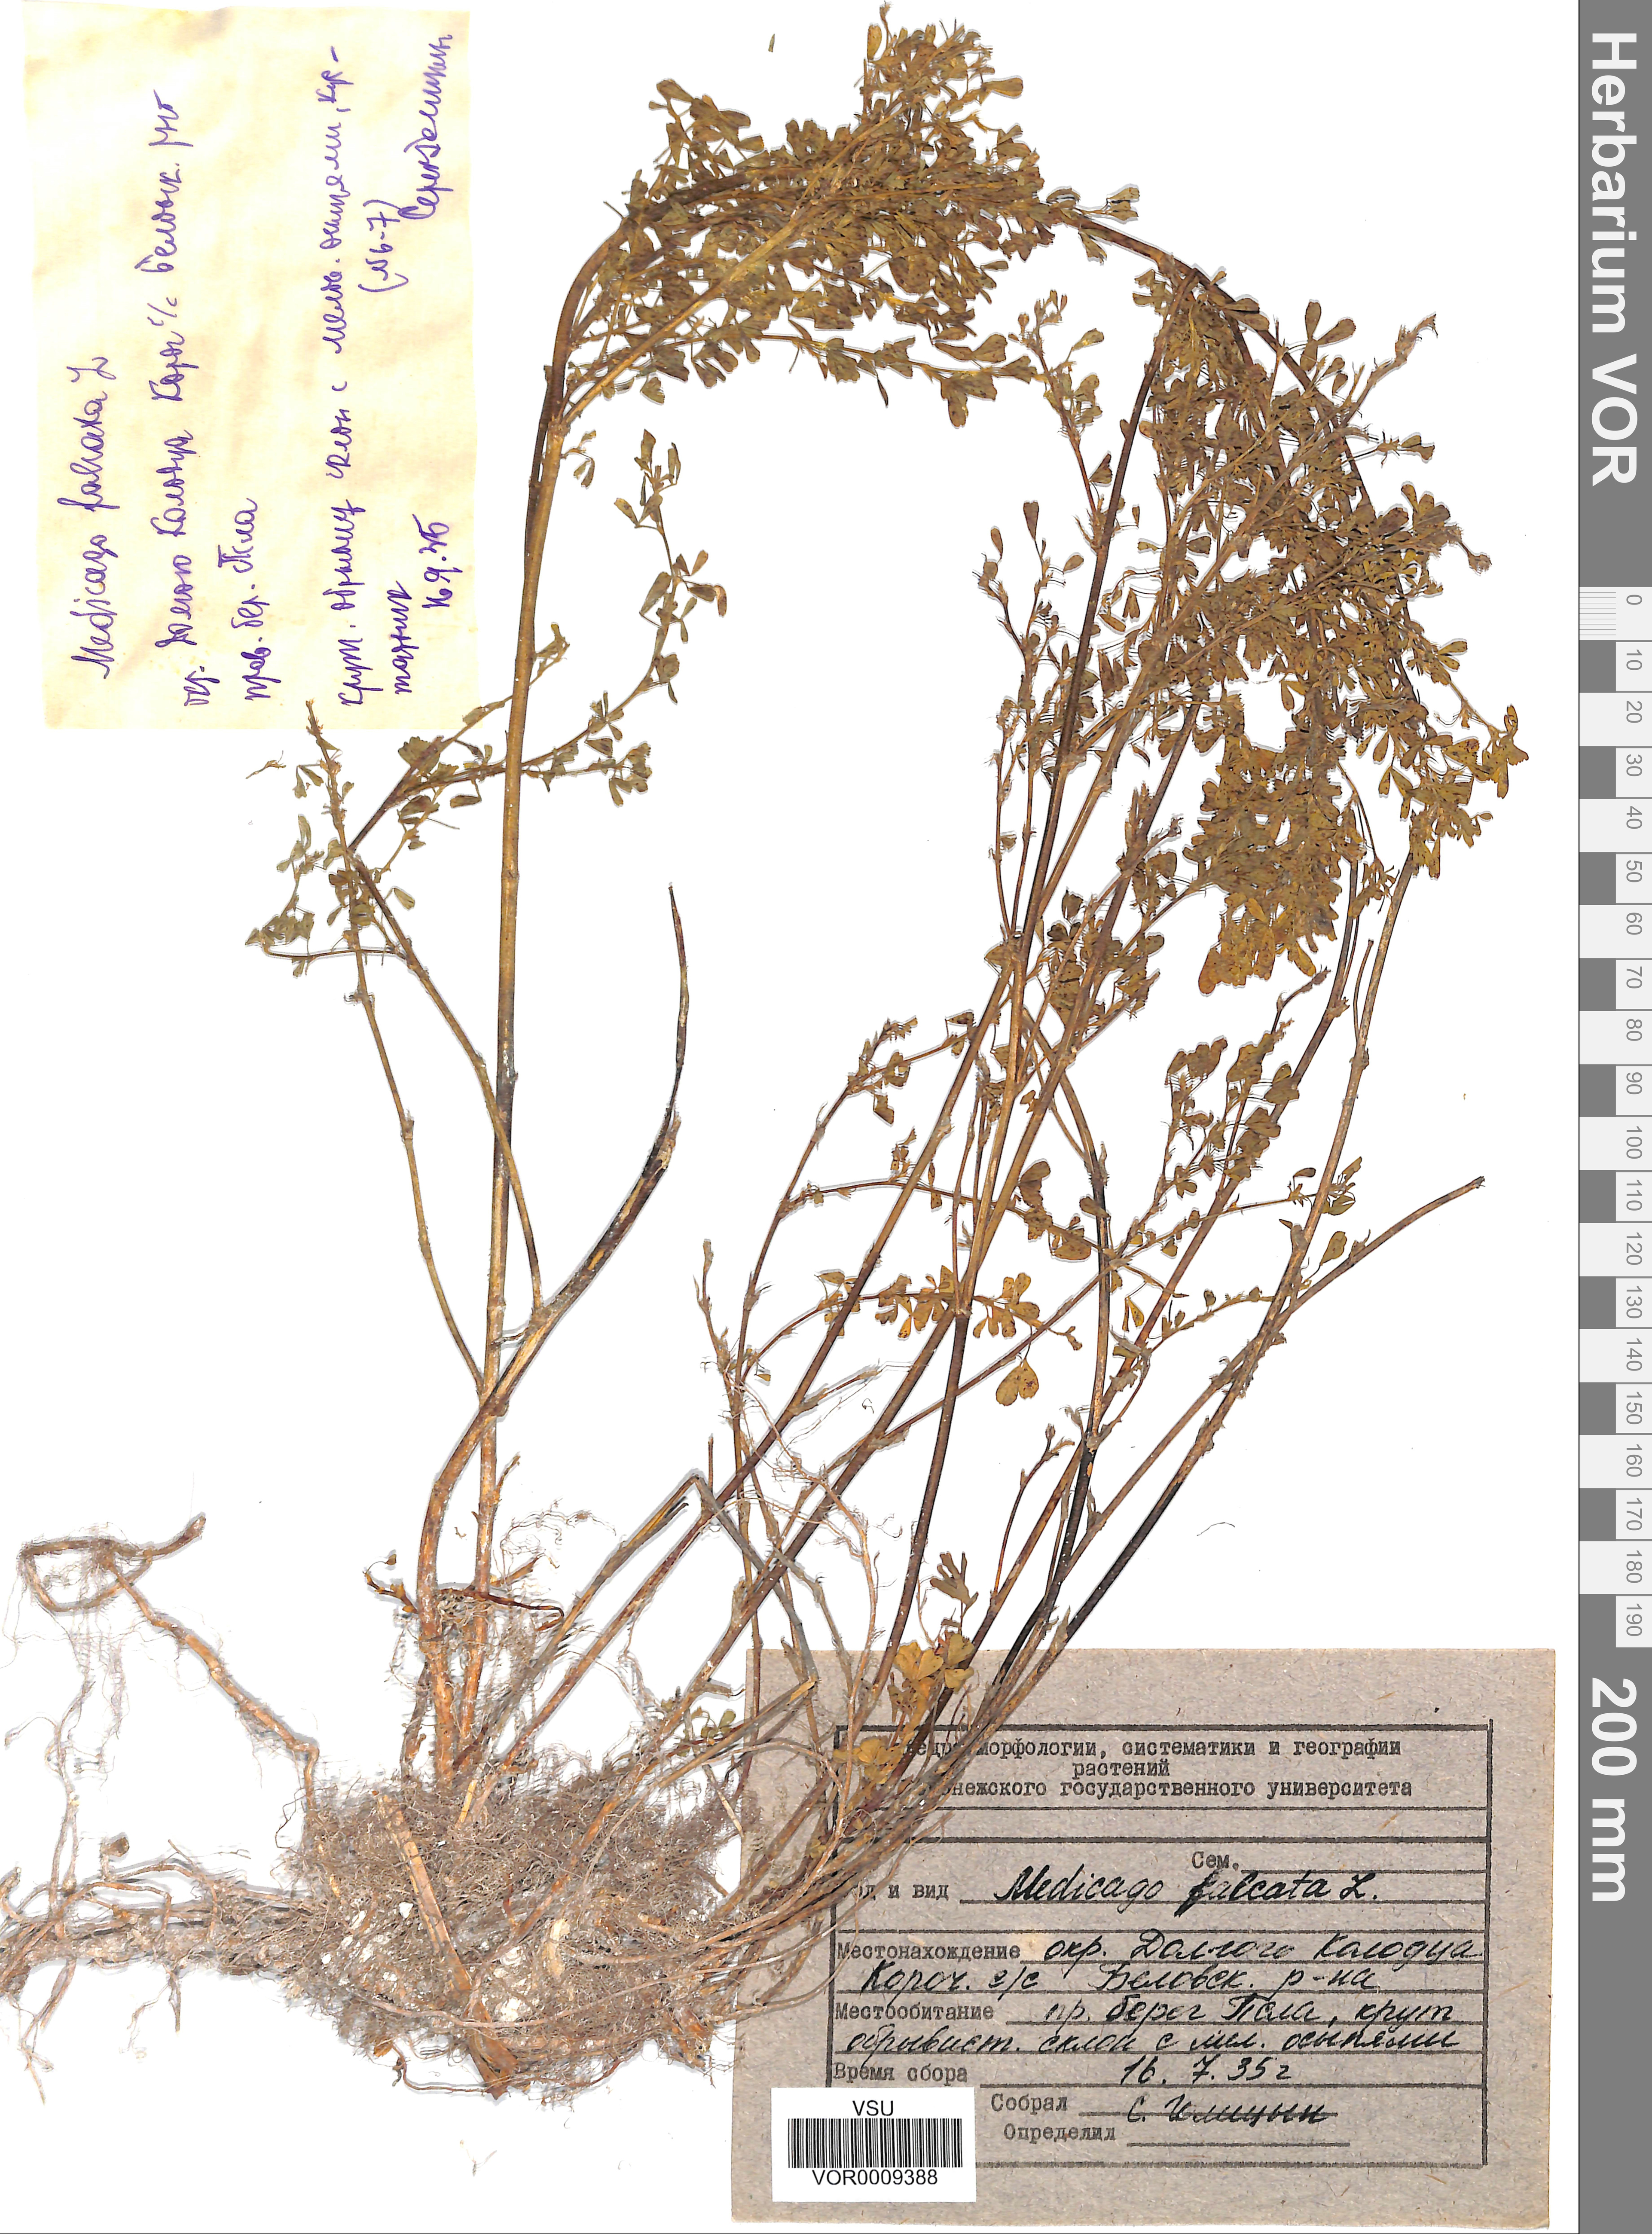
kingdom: Plantae
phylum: Tracheophyta
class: Magnoliopsida
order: Fabales
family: Fabaceae
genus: Medicago
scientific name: Medicago falcata
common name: Sickle medick
